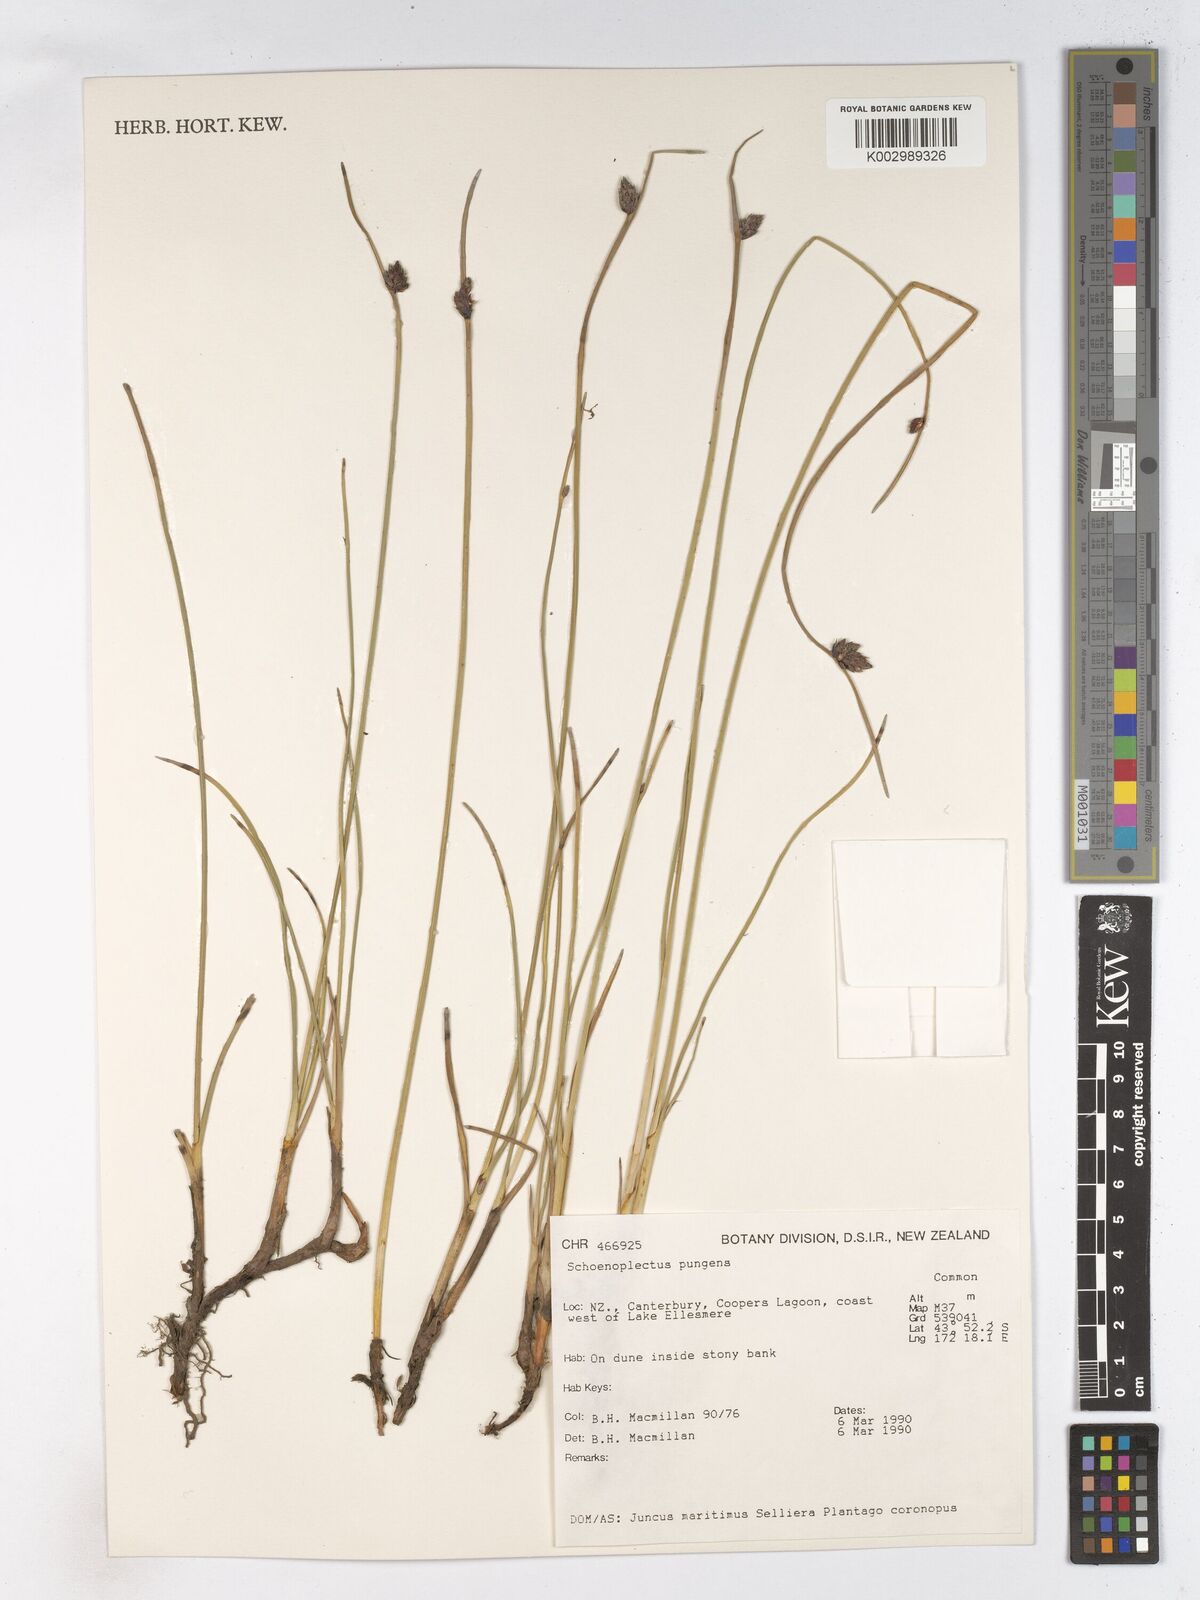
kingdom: Plantae
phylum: Tracheophyta
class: Liliopsida
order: Poales
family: Cyperaceae
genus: Schoenoplectus
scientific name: Schoenoplectus pungens
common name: Sharp club-rush
